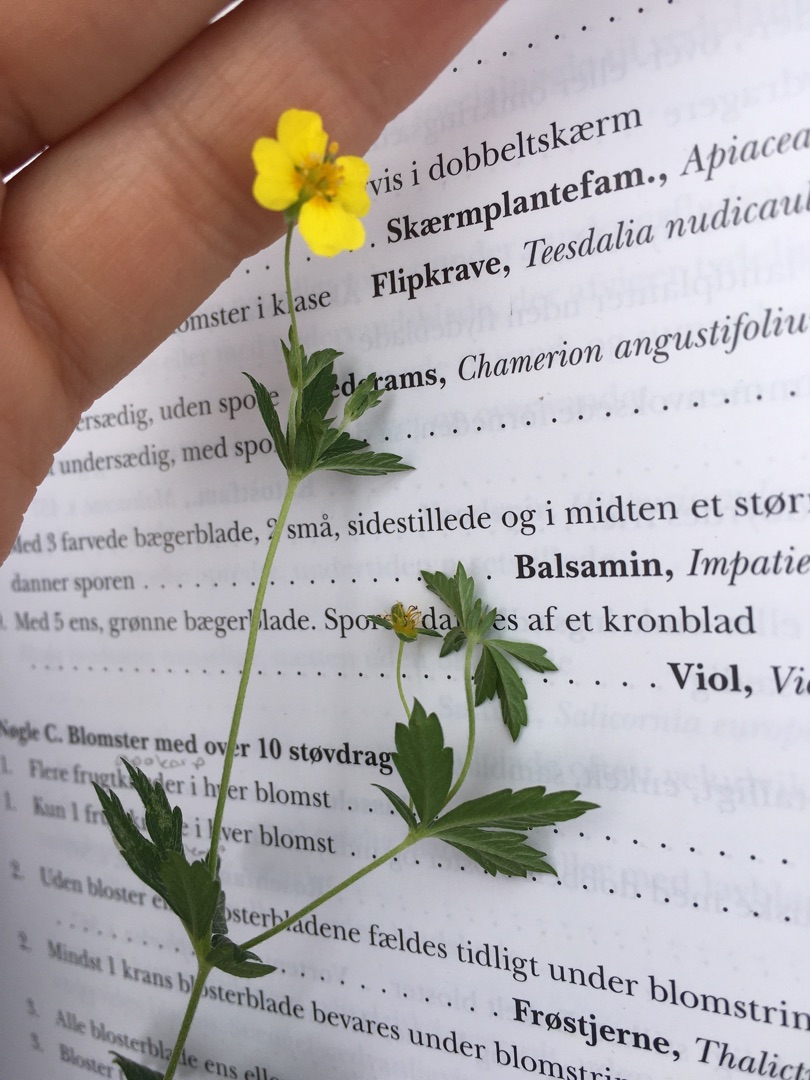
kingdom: Plantae
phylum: Tracheophyta
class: Magnoliopsida
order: Rosales
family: Rosaceae
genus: Potentilla
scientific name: Potentilla erecta
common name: Tormentil
